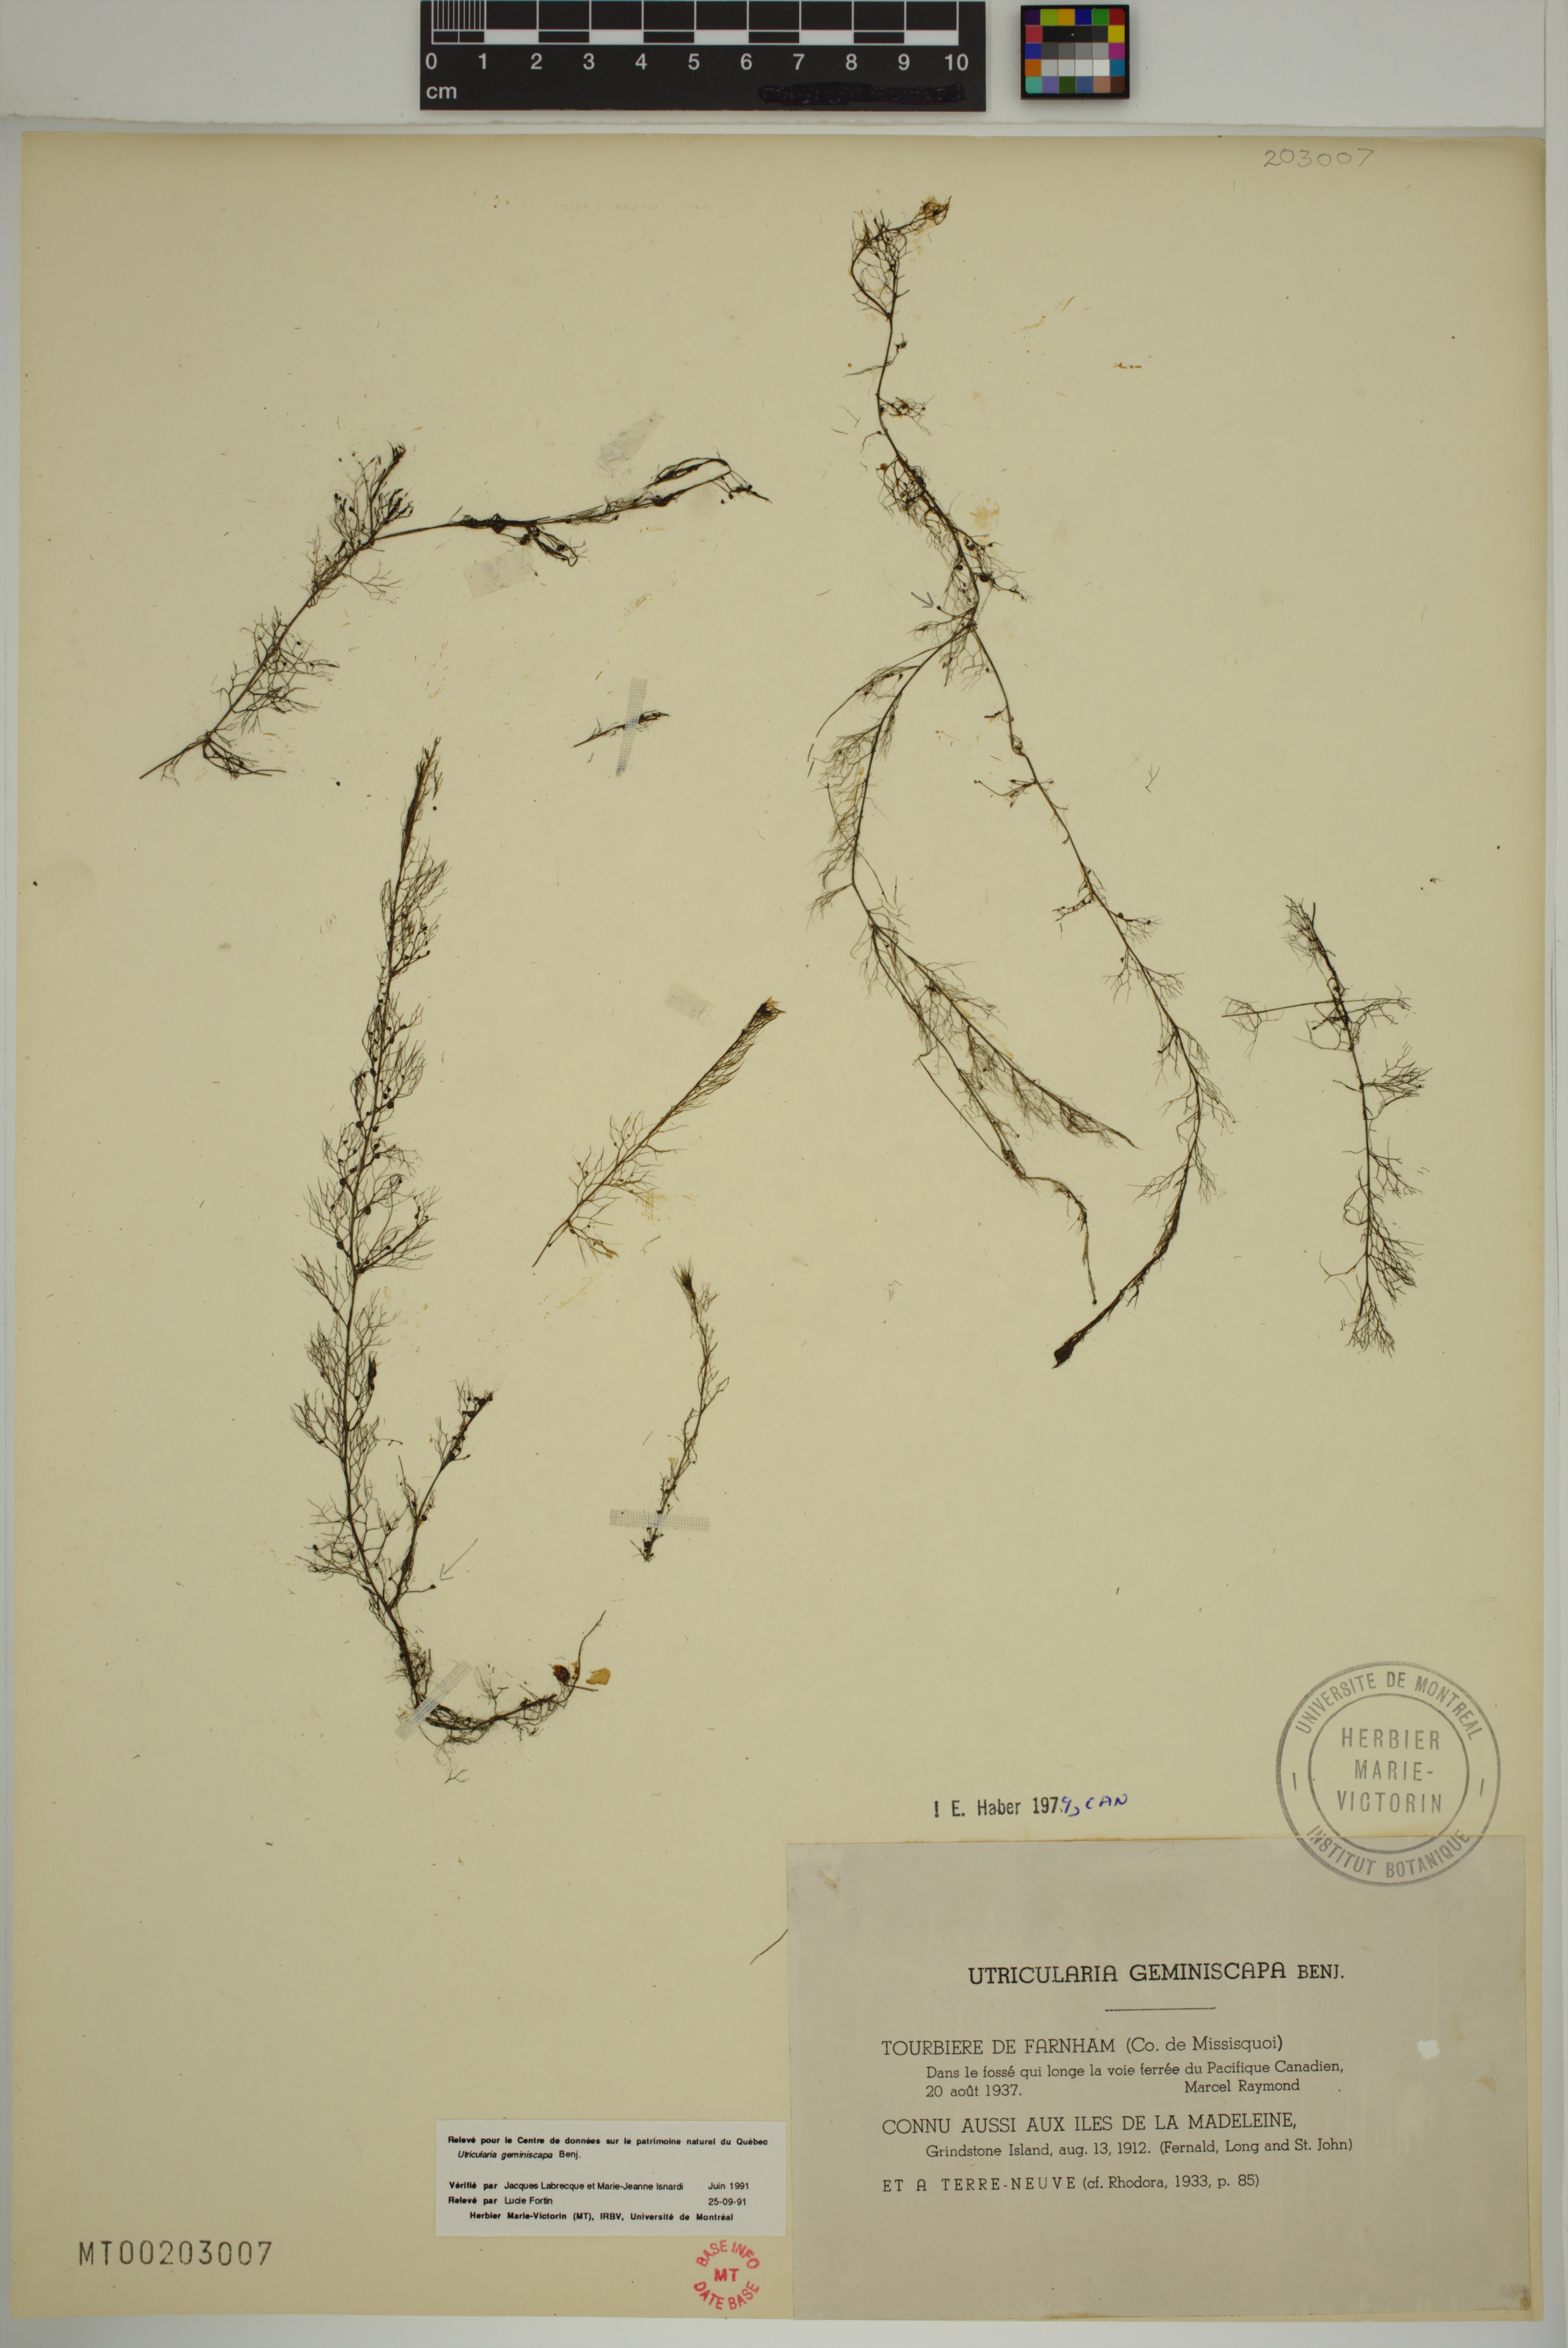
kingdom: Plantae
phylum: Tracheophyta
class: Magnoliopsida
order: Lamiales
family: Lentibulariaceae
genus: Utricularia
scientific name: Utricularia geminiscapa
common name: Hidden-fruit bladderwort
